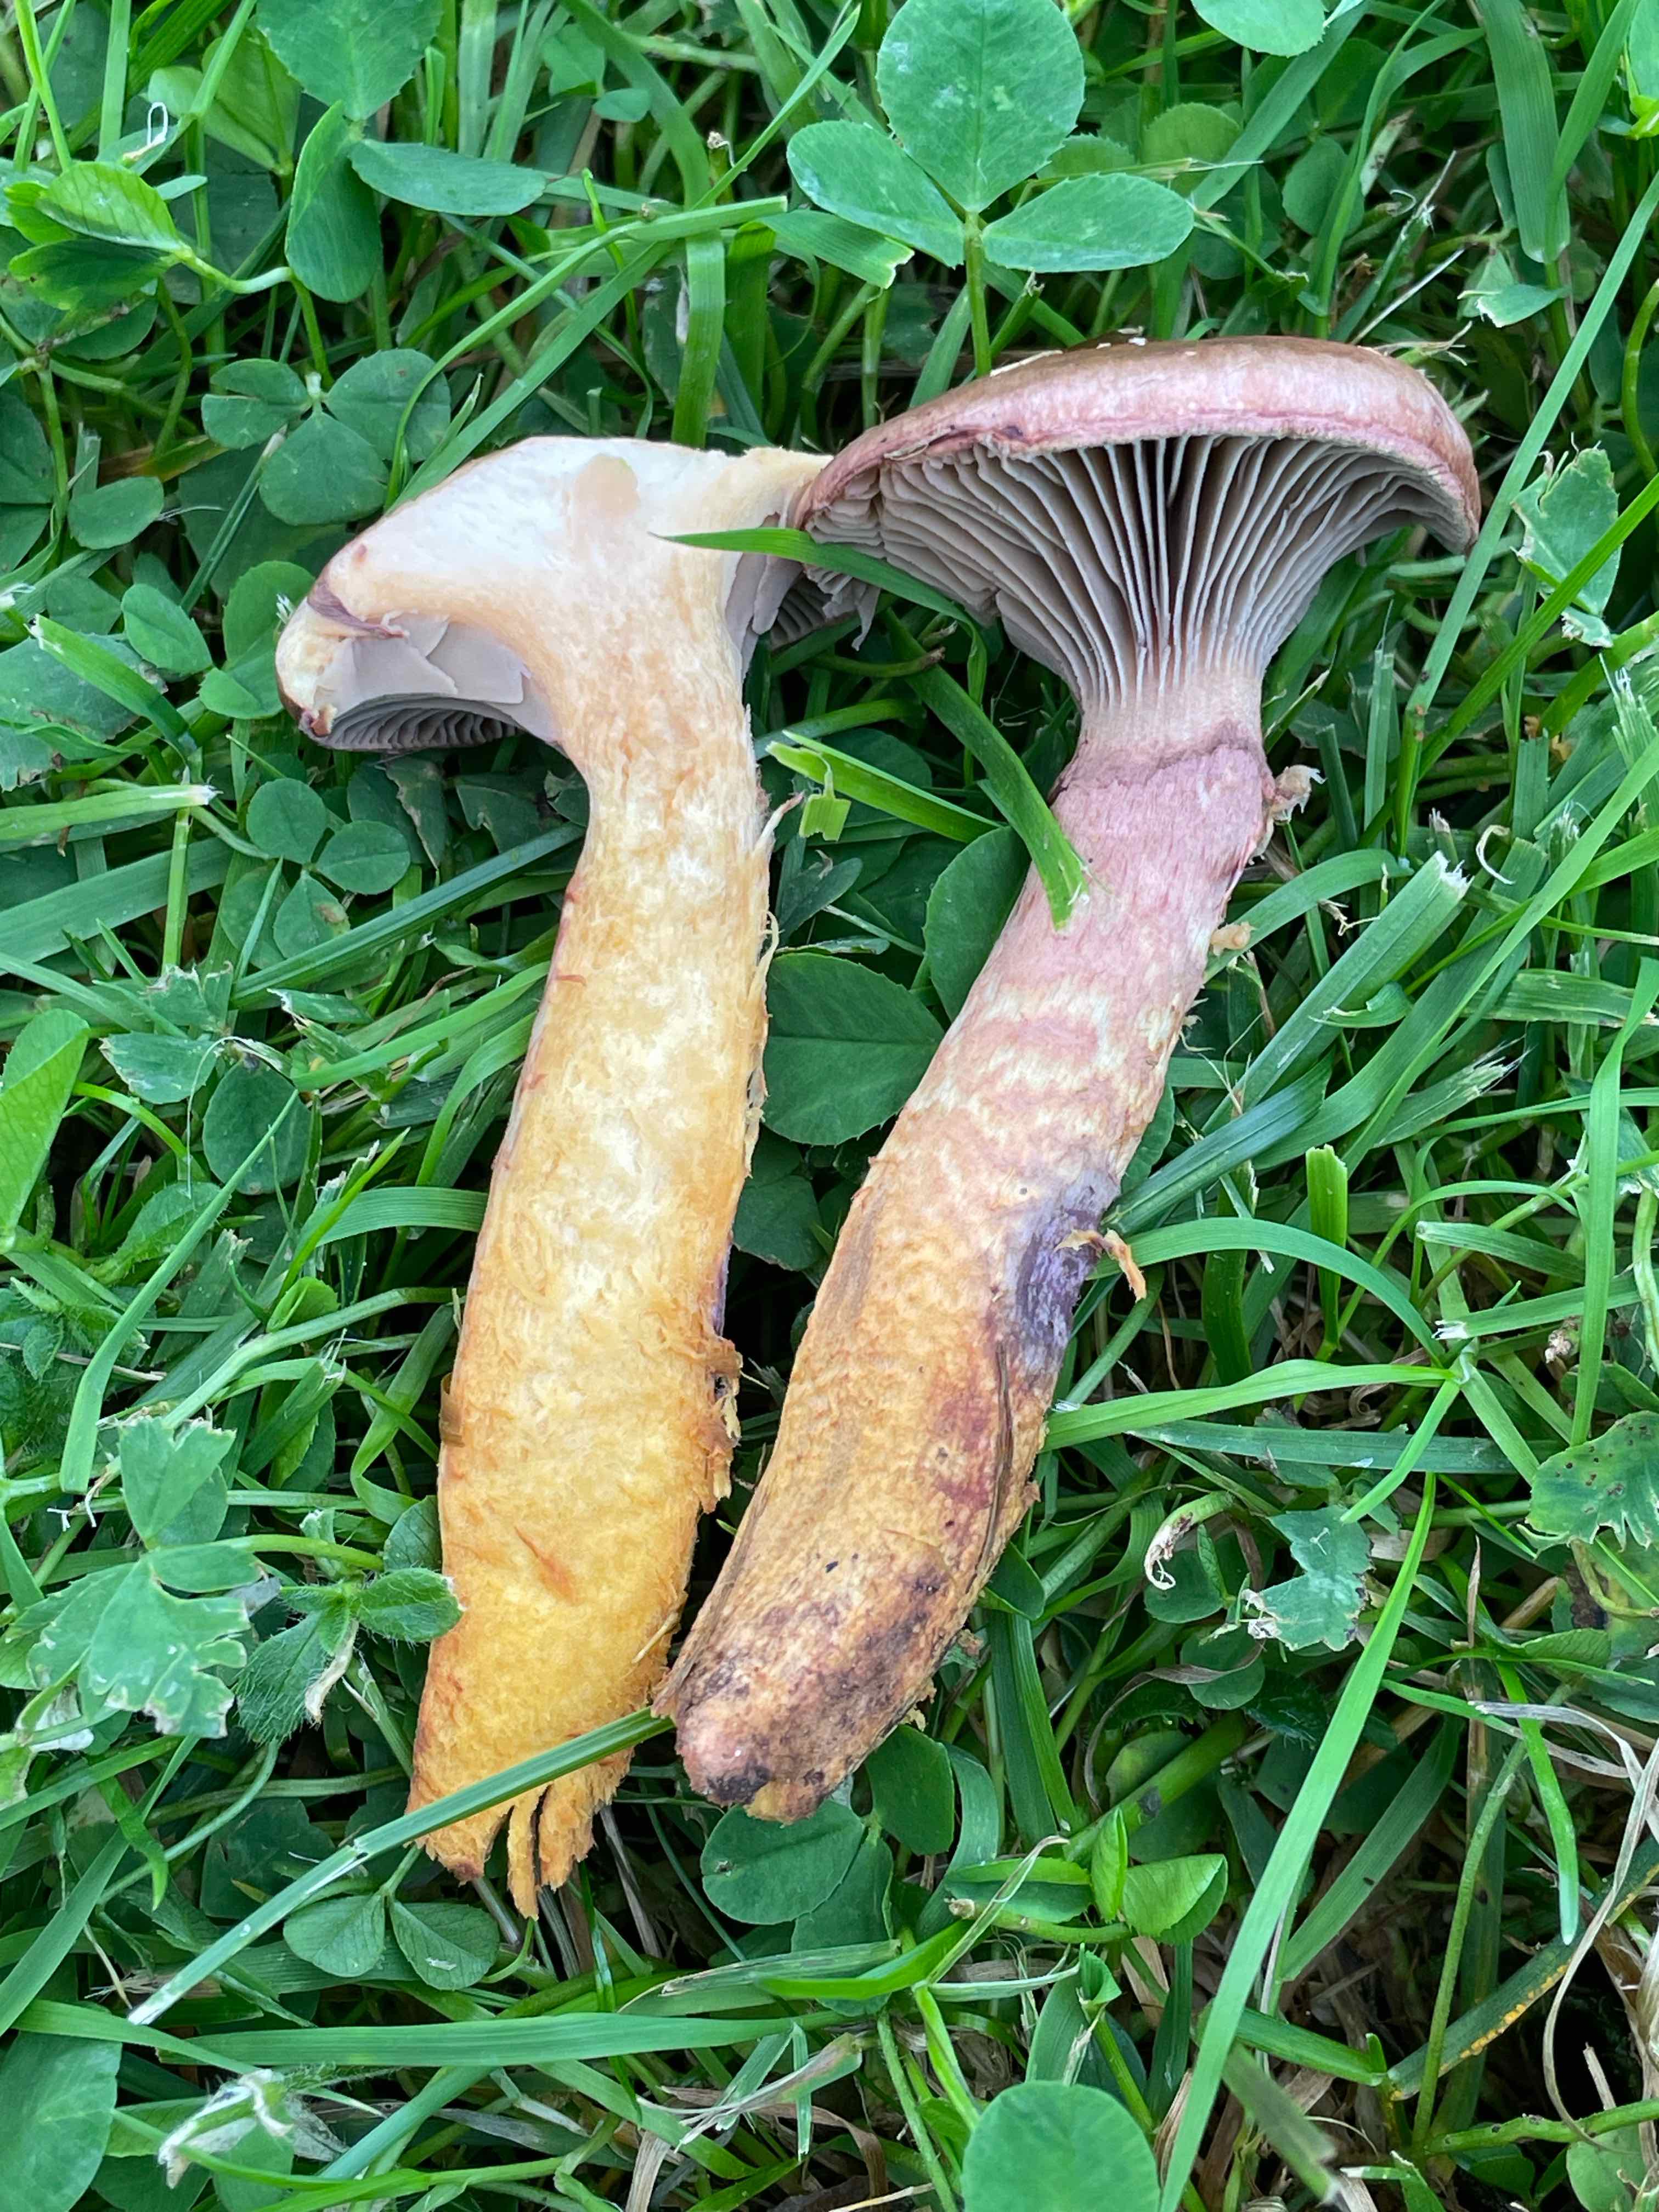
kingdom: Fungi
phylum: Basidiomycota
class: Agaricomycetes
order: Boletales
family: Gomphidiaceae
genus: Chroogomphus
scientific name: Chroogomphus rutilus
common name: brunrød slimslør
